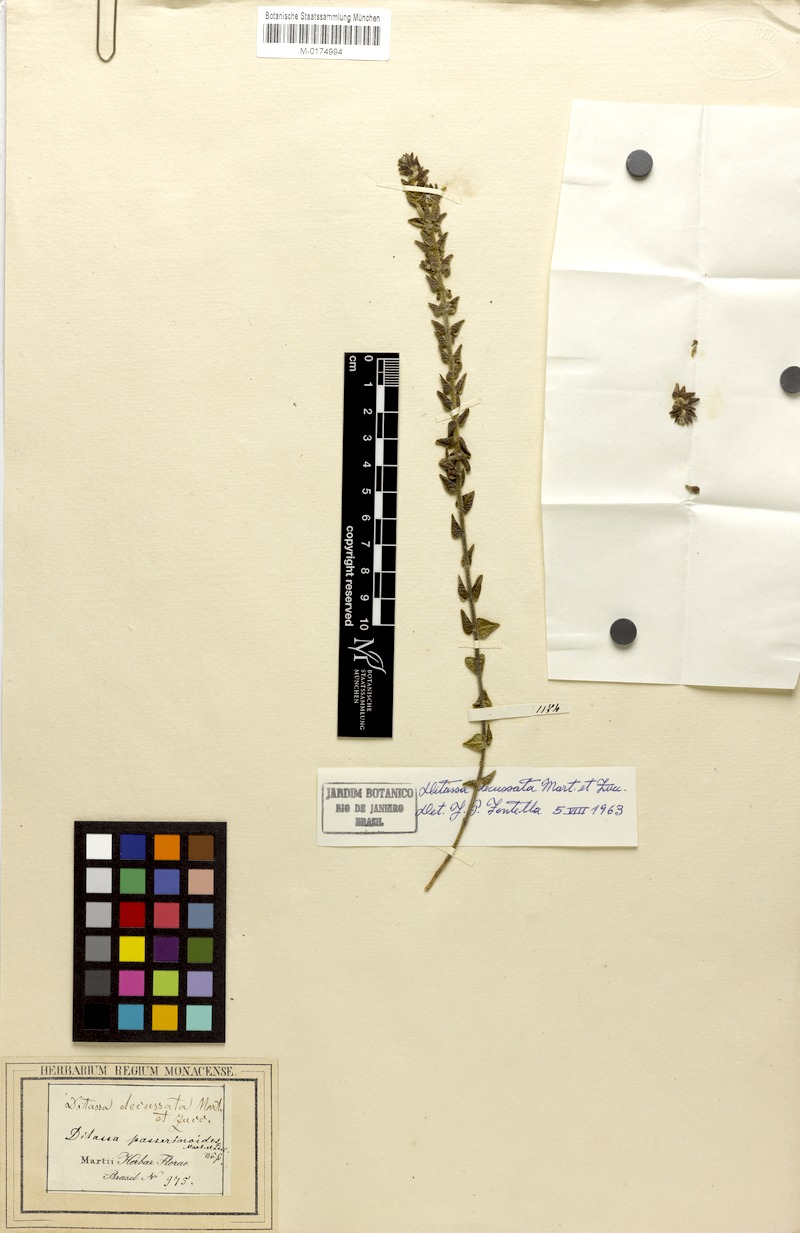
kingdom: Plantae
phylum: Tracheophyta
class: Magnoliopsida
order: Gentianales
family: Apocynaceae
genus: Minaria
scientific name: Minaria decussata
